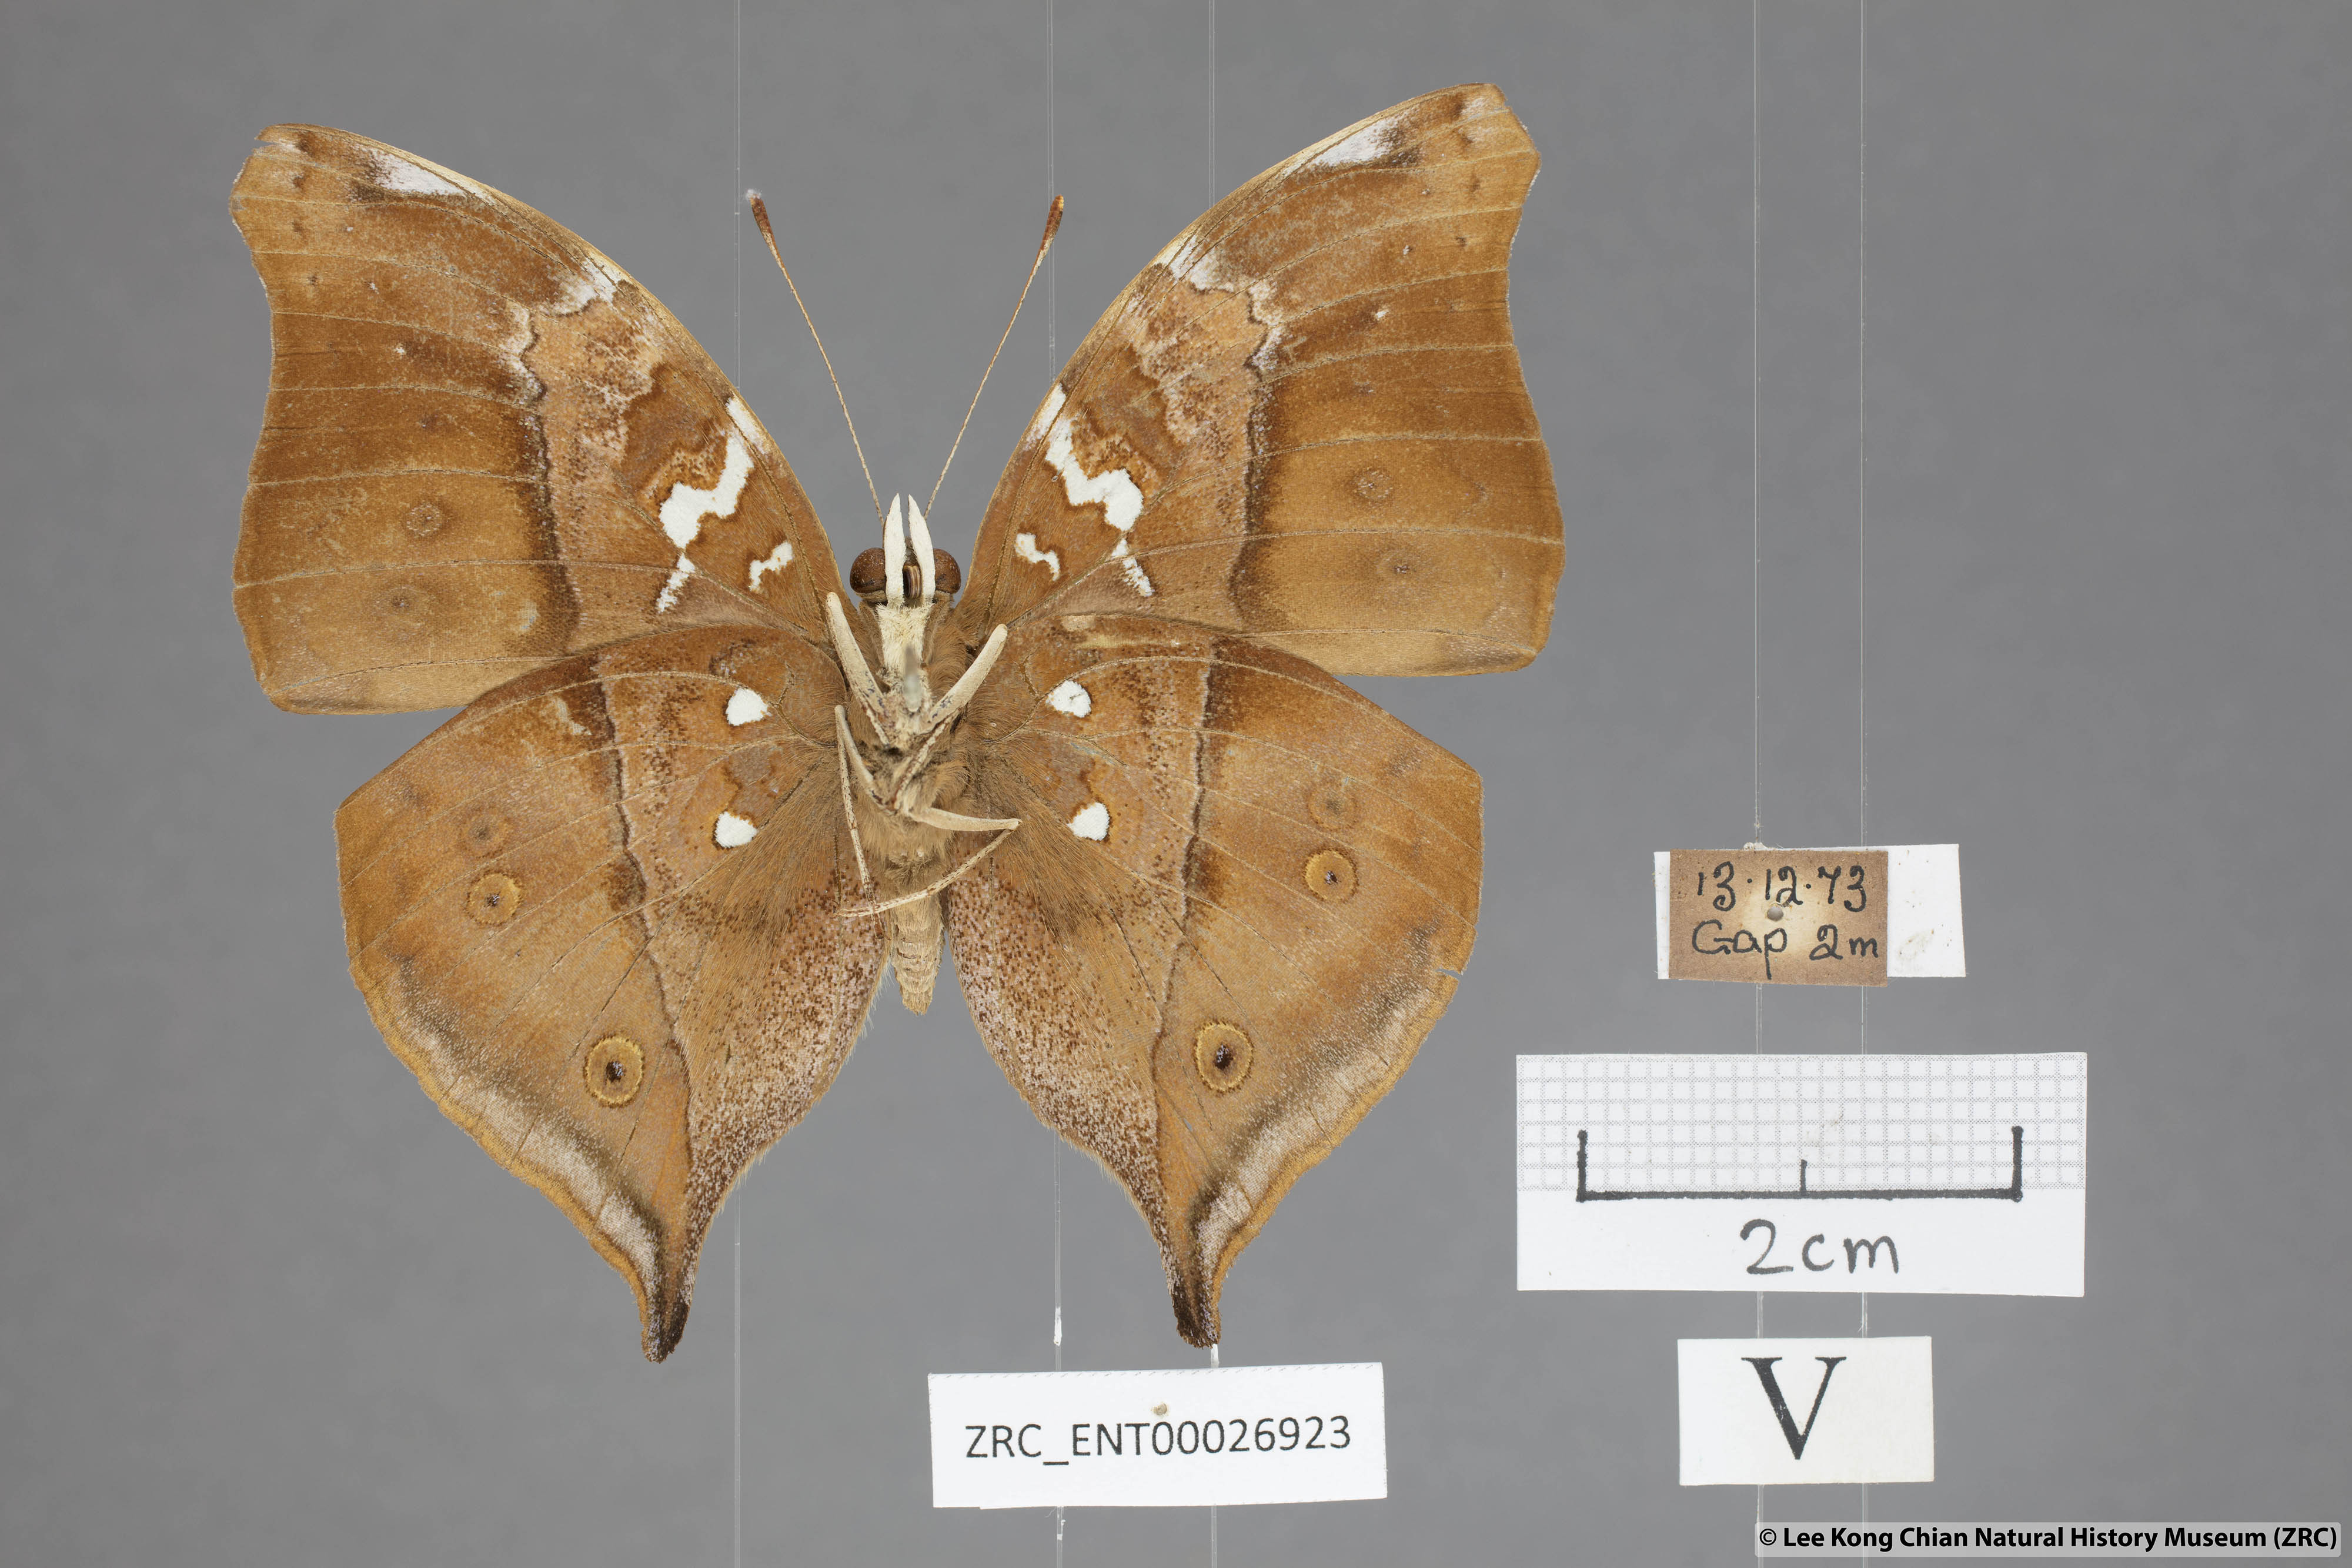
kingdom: Animalia
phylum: Arthropoda
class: Insecta
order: Lepidoptera
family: Nymphalidae
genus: Doleschallia
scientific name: Doleschallia bisaltide
